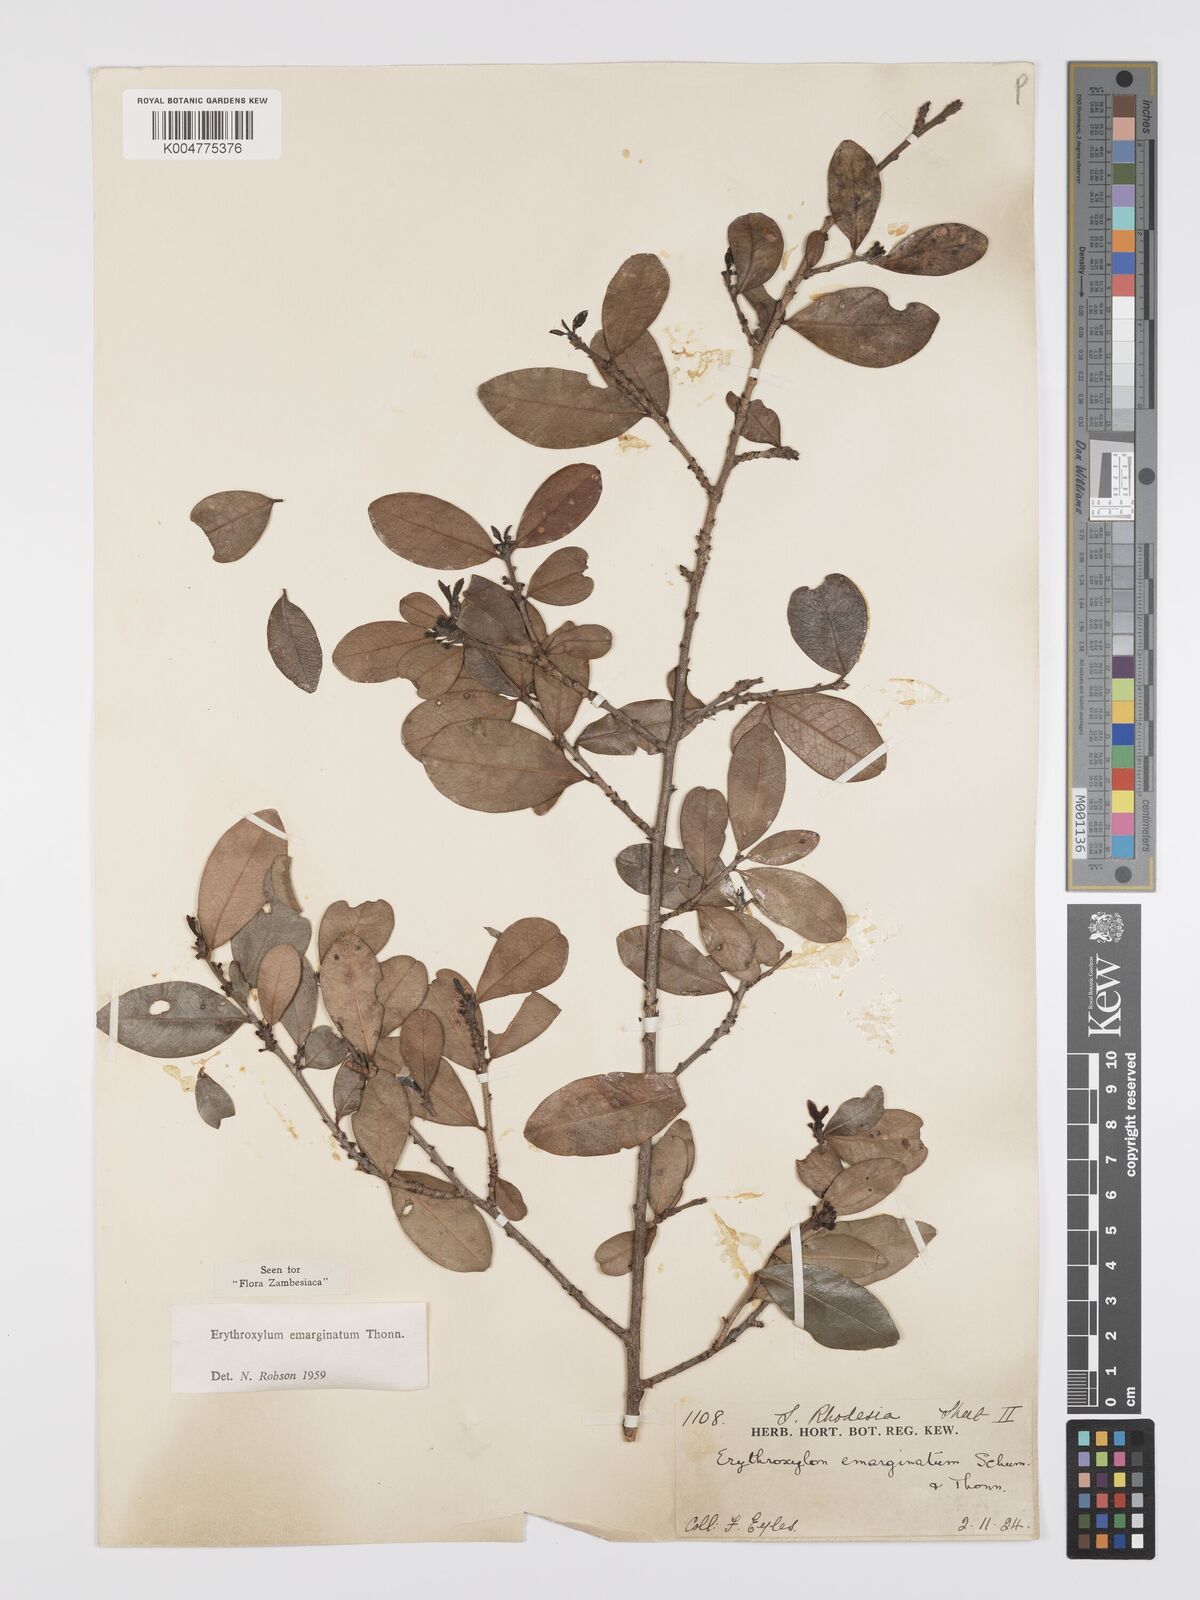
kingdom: Plantae
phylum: Tracheophyta
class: Magnoliopsida
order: Malpighiales
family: Erythroxylaceae
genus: Erythroxylum
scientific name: Erythroxylum emarginatum
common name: African coca-tree
